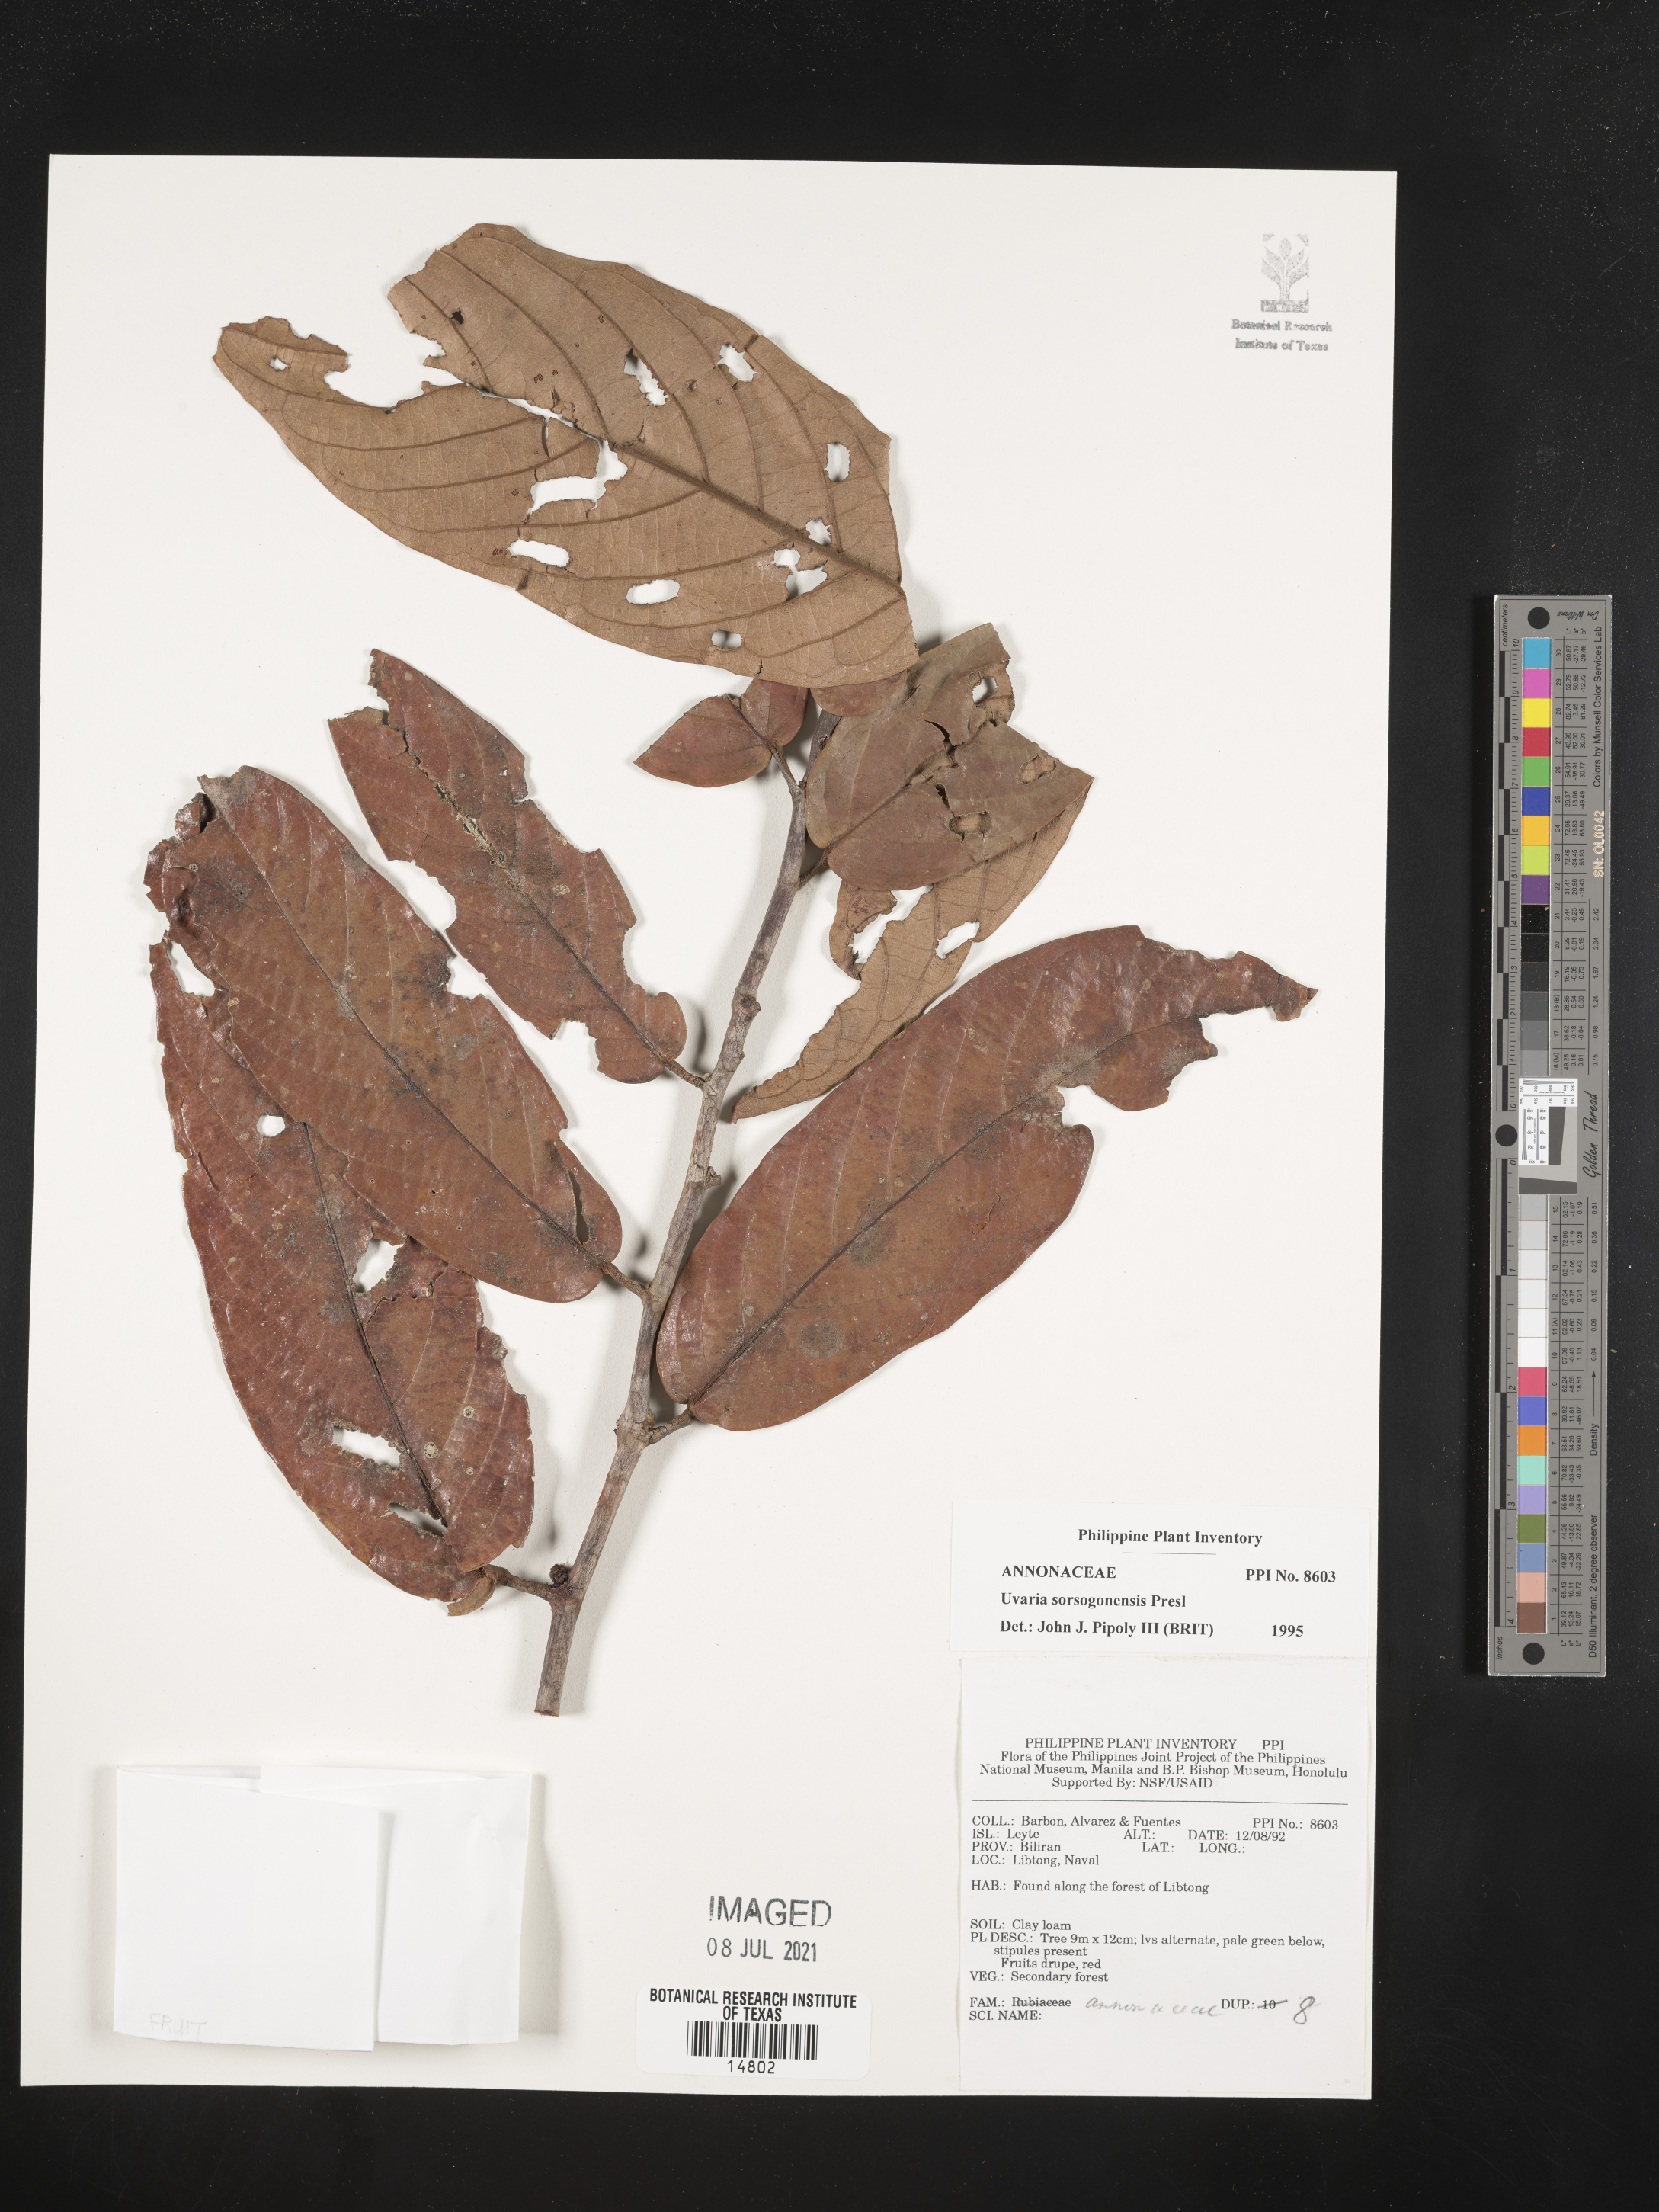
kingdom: Plantae
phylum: Tracheophyta
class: Magnoliopsida
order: Magnoliales
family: Annonaceae
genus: Uvaria
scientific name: Uvaria littoralis
